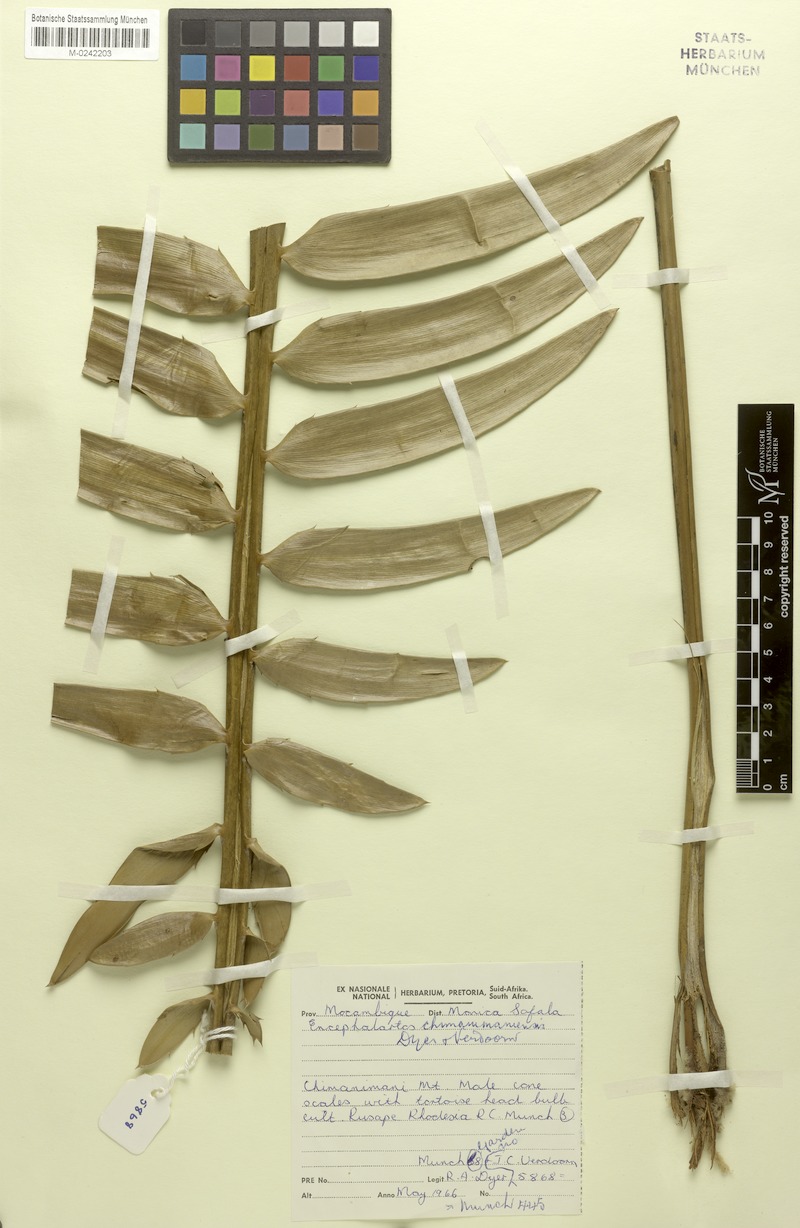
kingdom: Plantae
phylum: Tracheophyta
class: Cycadopsida
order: Cycadales
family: Zamiaceae
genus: Encephalartos
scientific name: Encephalartos chimanimaniensis
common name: Chimanimani cycad
